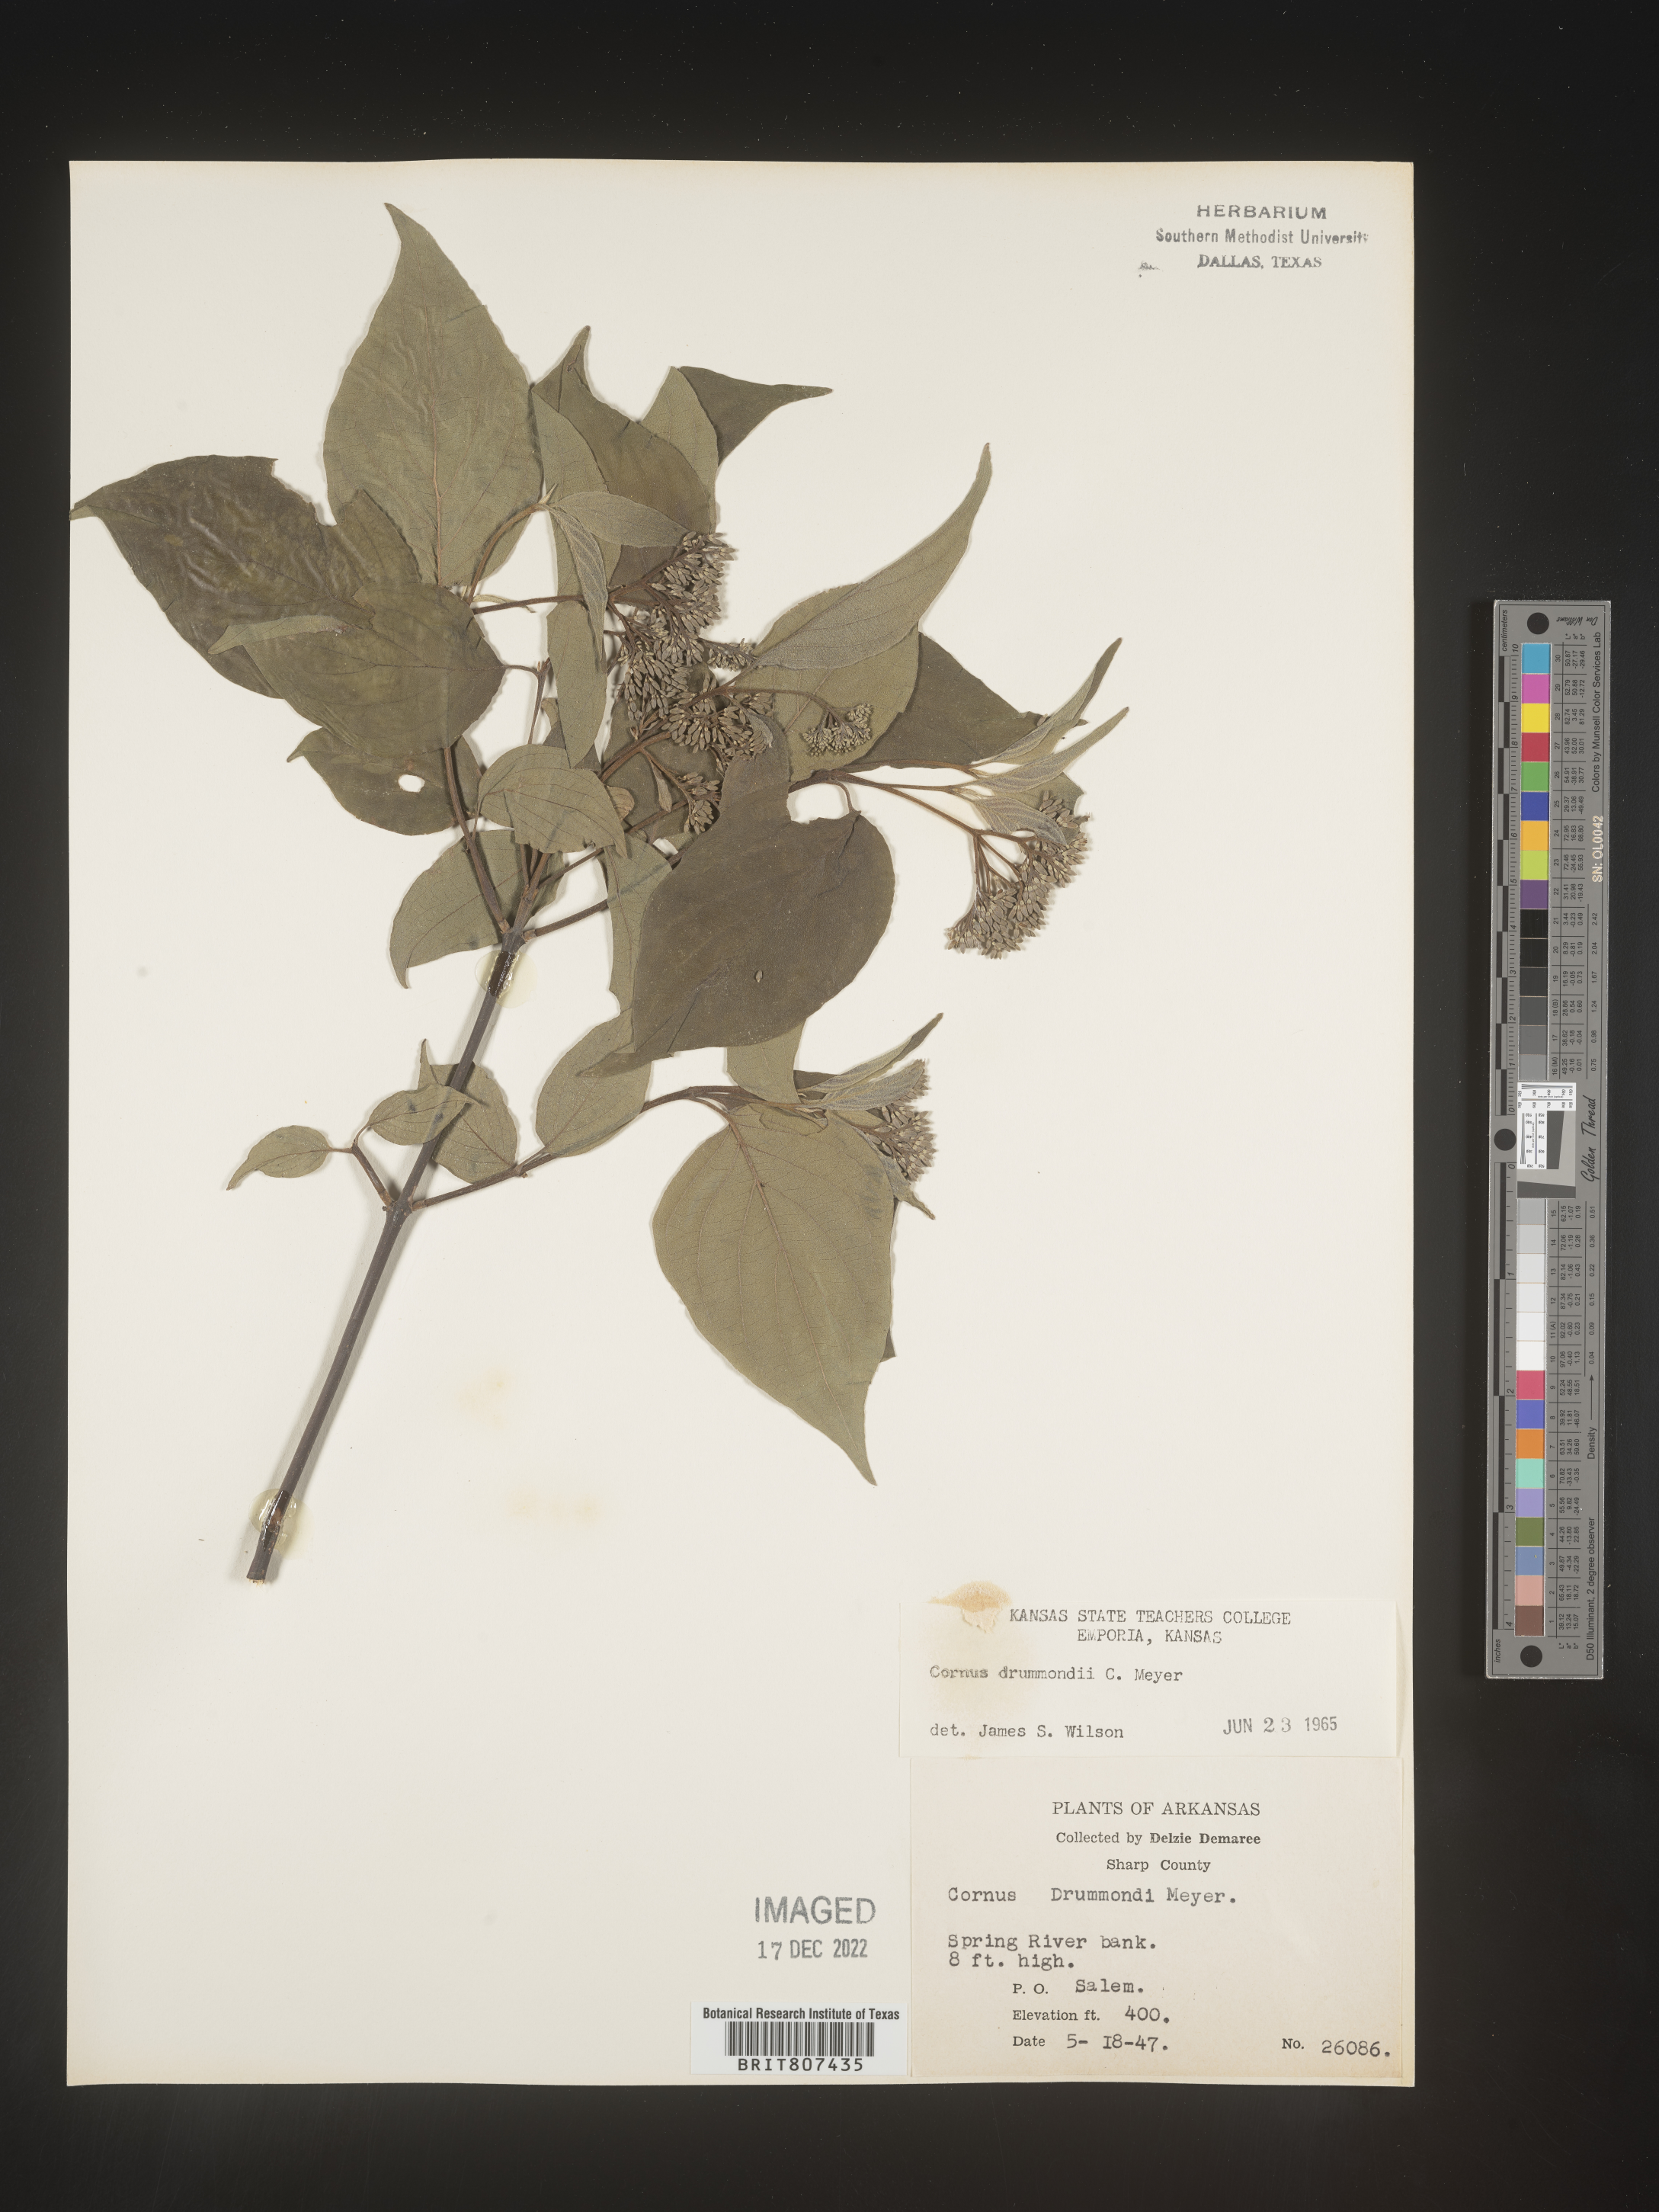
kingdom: Plantae
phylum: Tracheophyta
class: Magnoliopsida
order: Cornales
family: Cornaceae
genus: Cornus
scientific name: Cornus drummondii
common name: Rough-leaf dogwood
